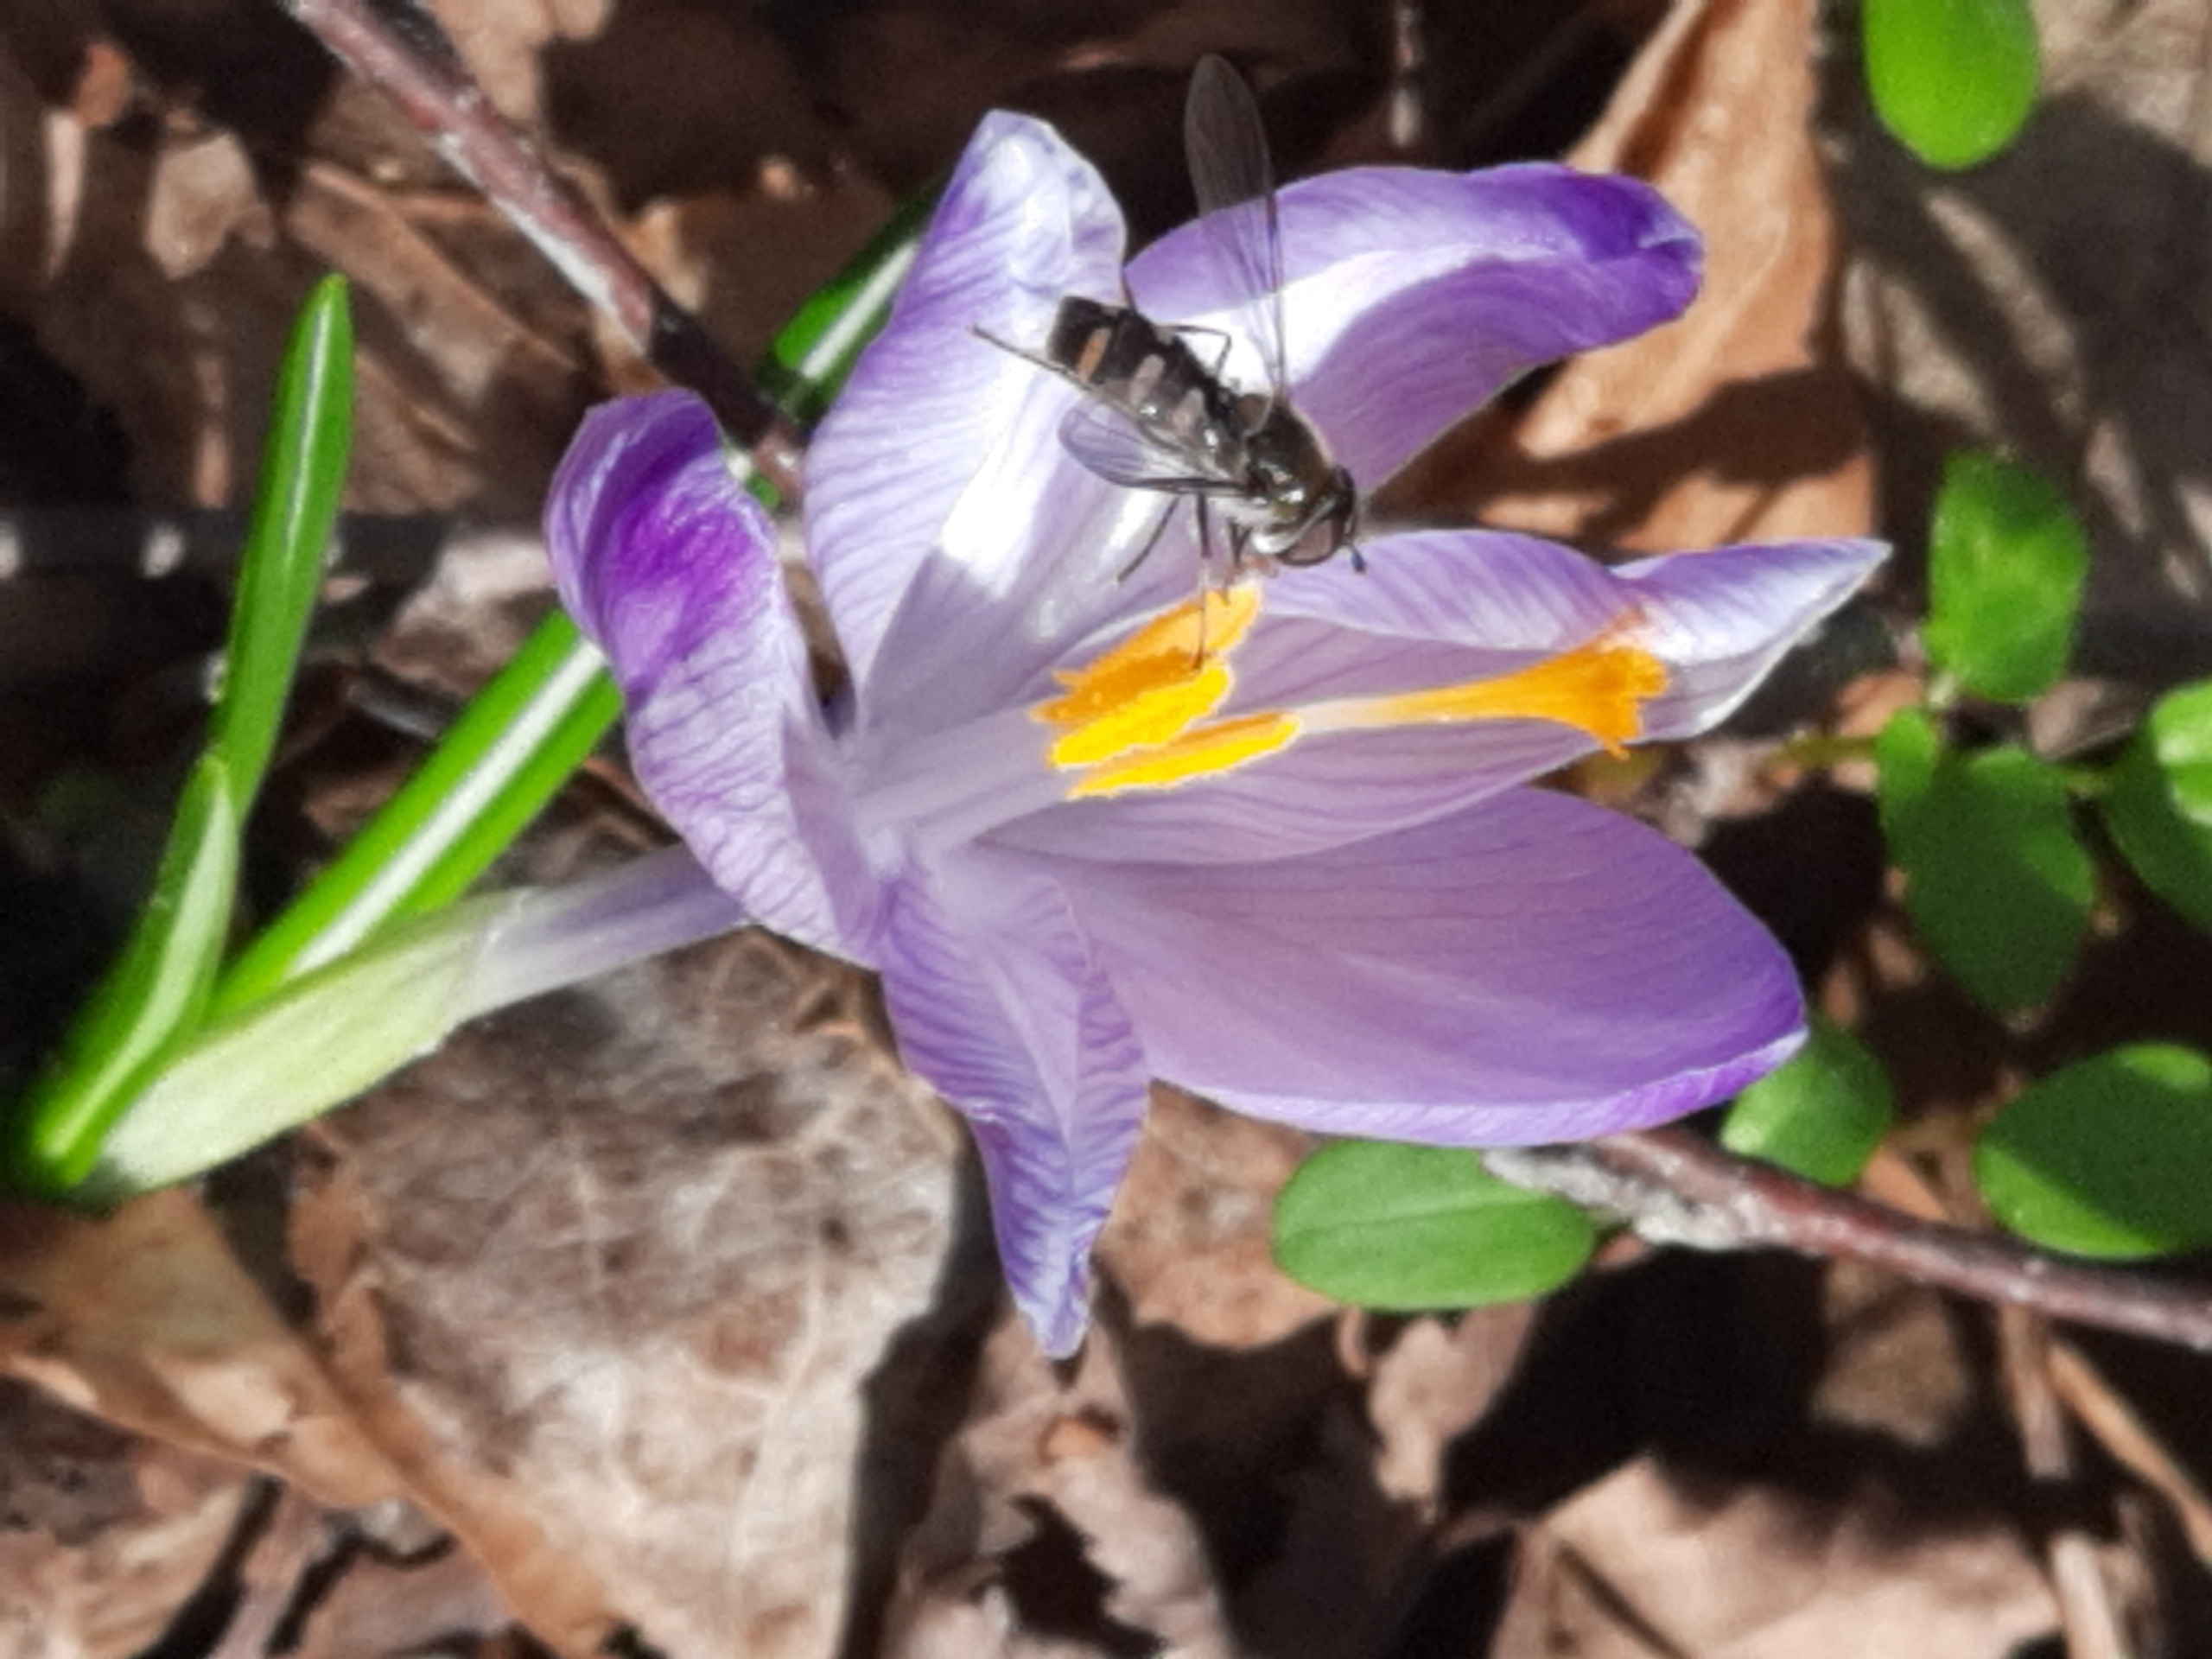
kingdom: Animalia
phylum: Arthropoda
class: Insecta
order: Diptera
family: Syrphidae
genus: Melangyna
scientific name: Melangyna lasiophthalma
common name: Håret svirreflue
